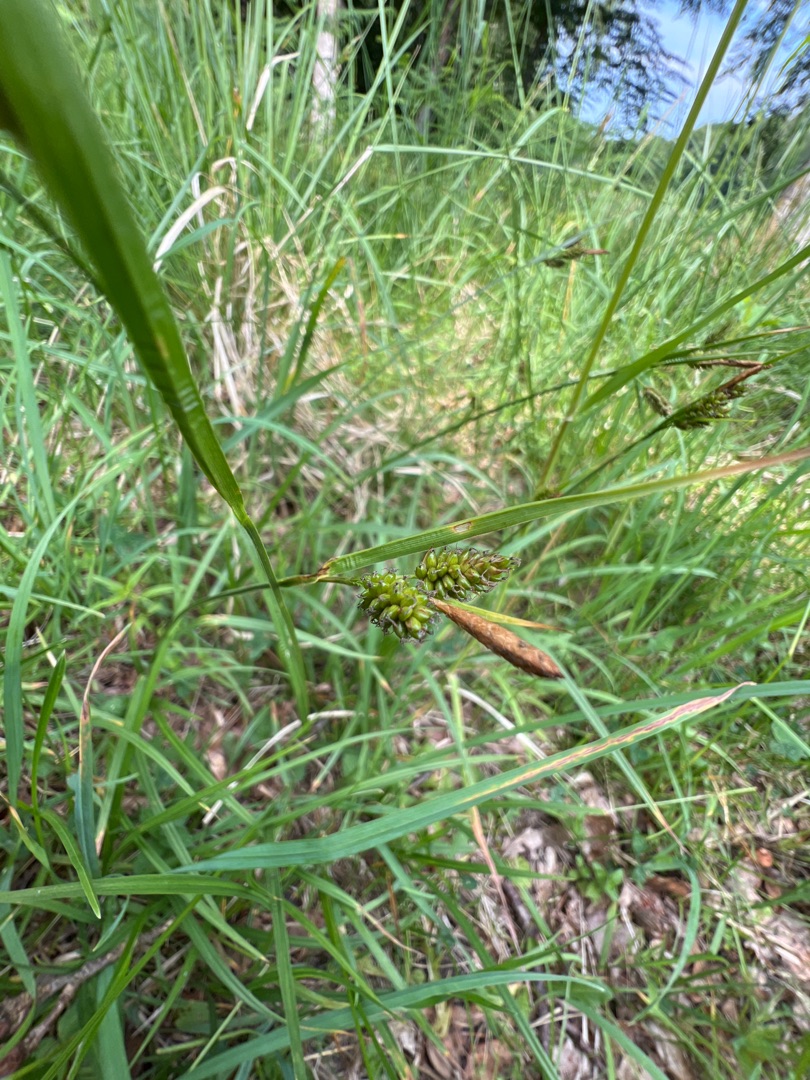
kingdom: Plantae
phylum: Tracheophyta
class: Liliopsida
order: Poales
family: Cyperaceae
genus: Carex
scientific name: Carex pallescens
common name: Bleg star
